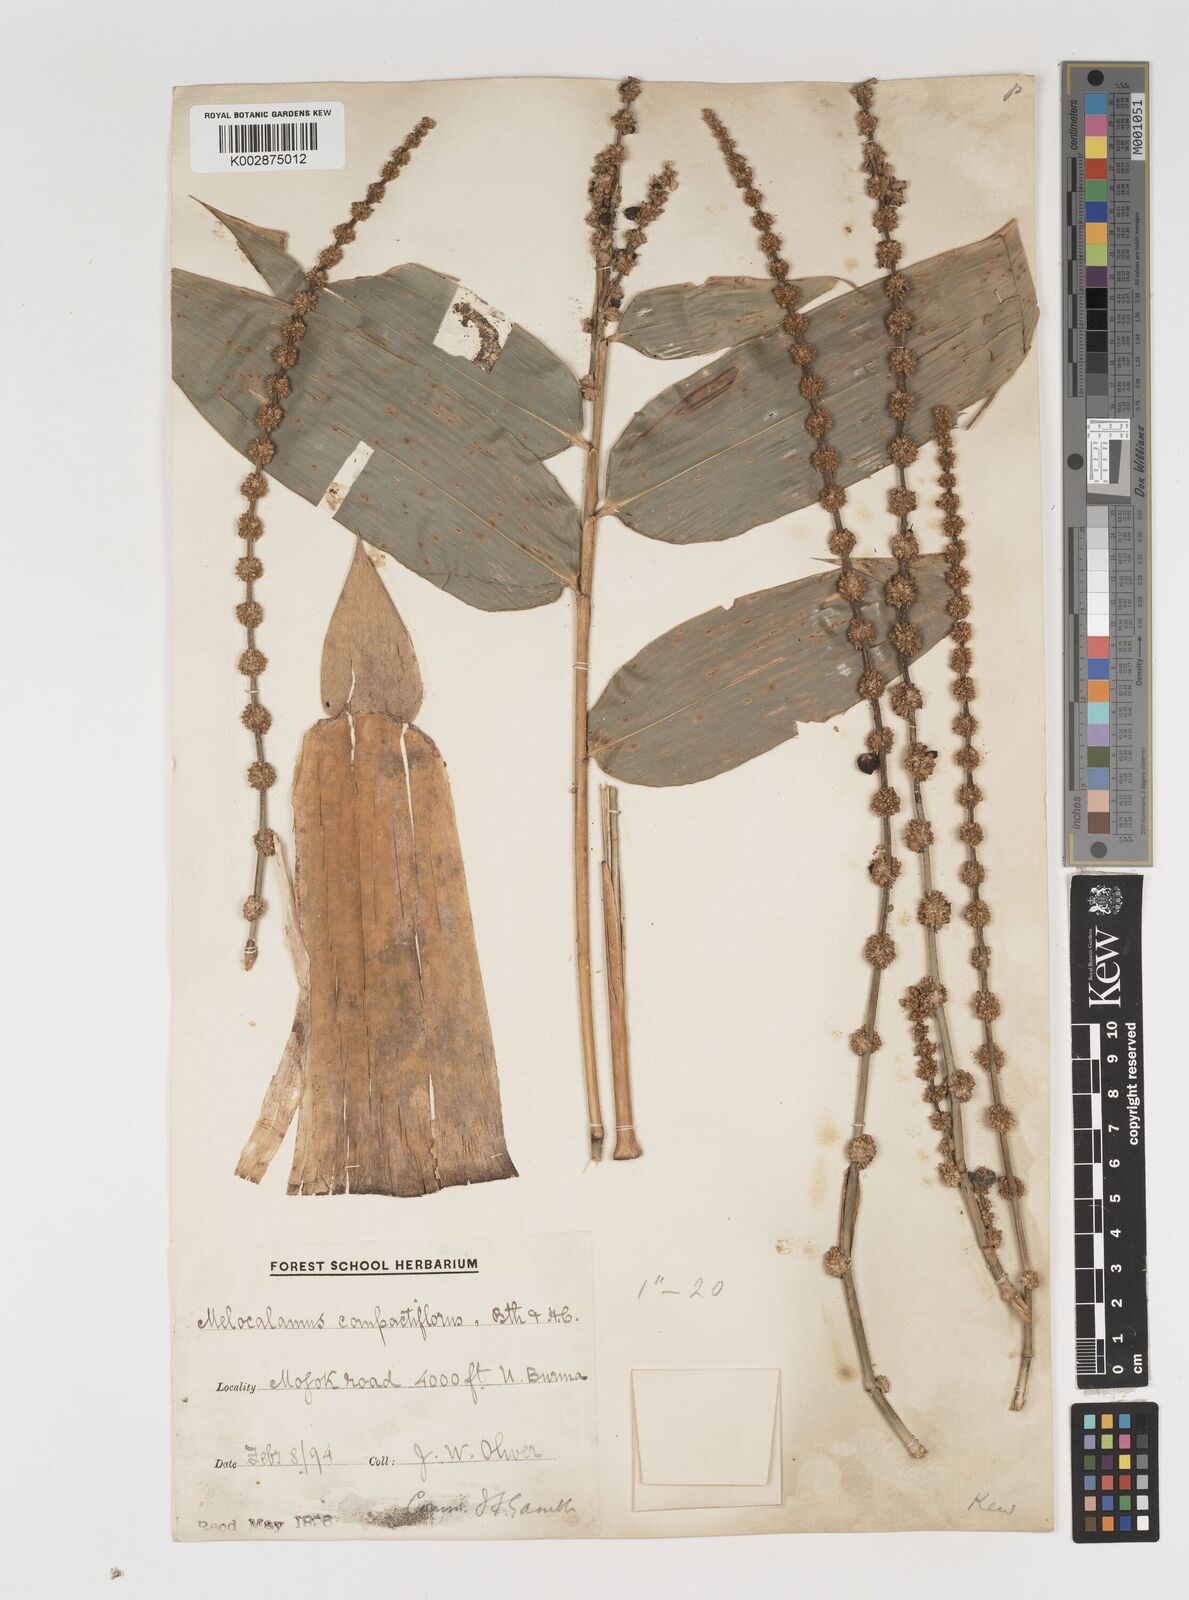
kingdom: Plantae
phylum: Tracheophyta
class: Liliopsida
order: Poales
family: Poaceae
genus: Melocalamus
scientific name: Melocalamus compactiflorus
